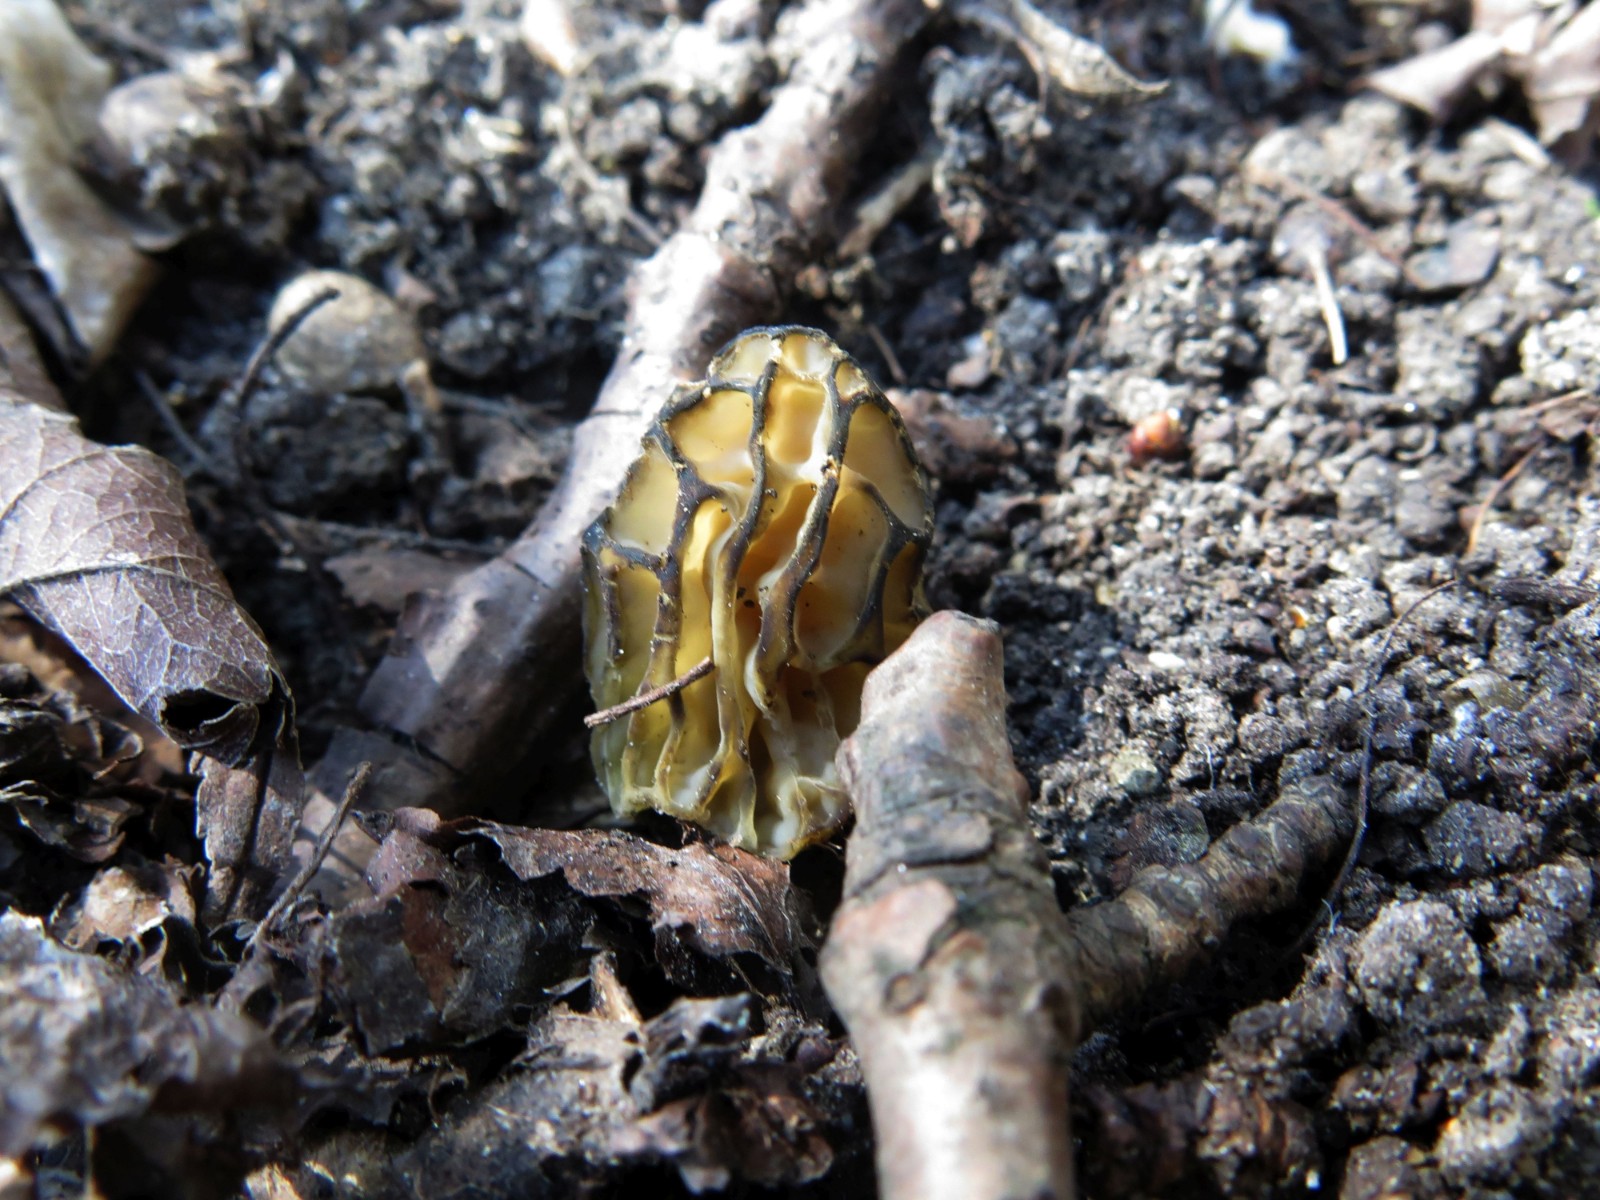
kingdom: Fungi
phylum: Ascomycota
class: Pezizomycetes
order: Pezizales
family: Morchellaceae
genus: Morchella
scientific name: Morchella semilibera
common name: hætte-morkel
